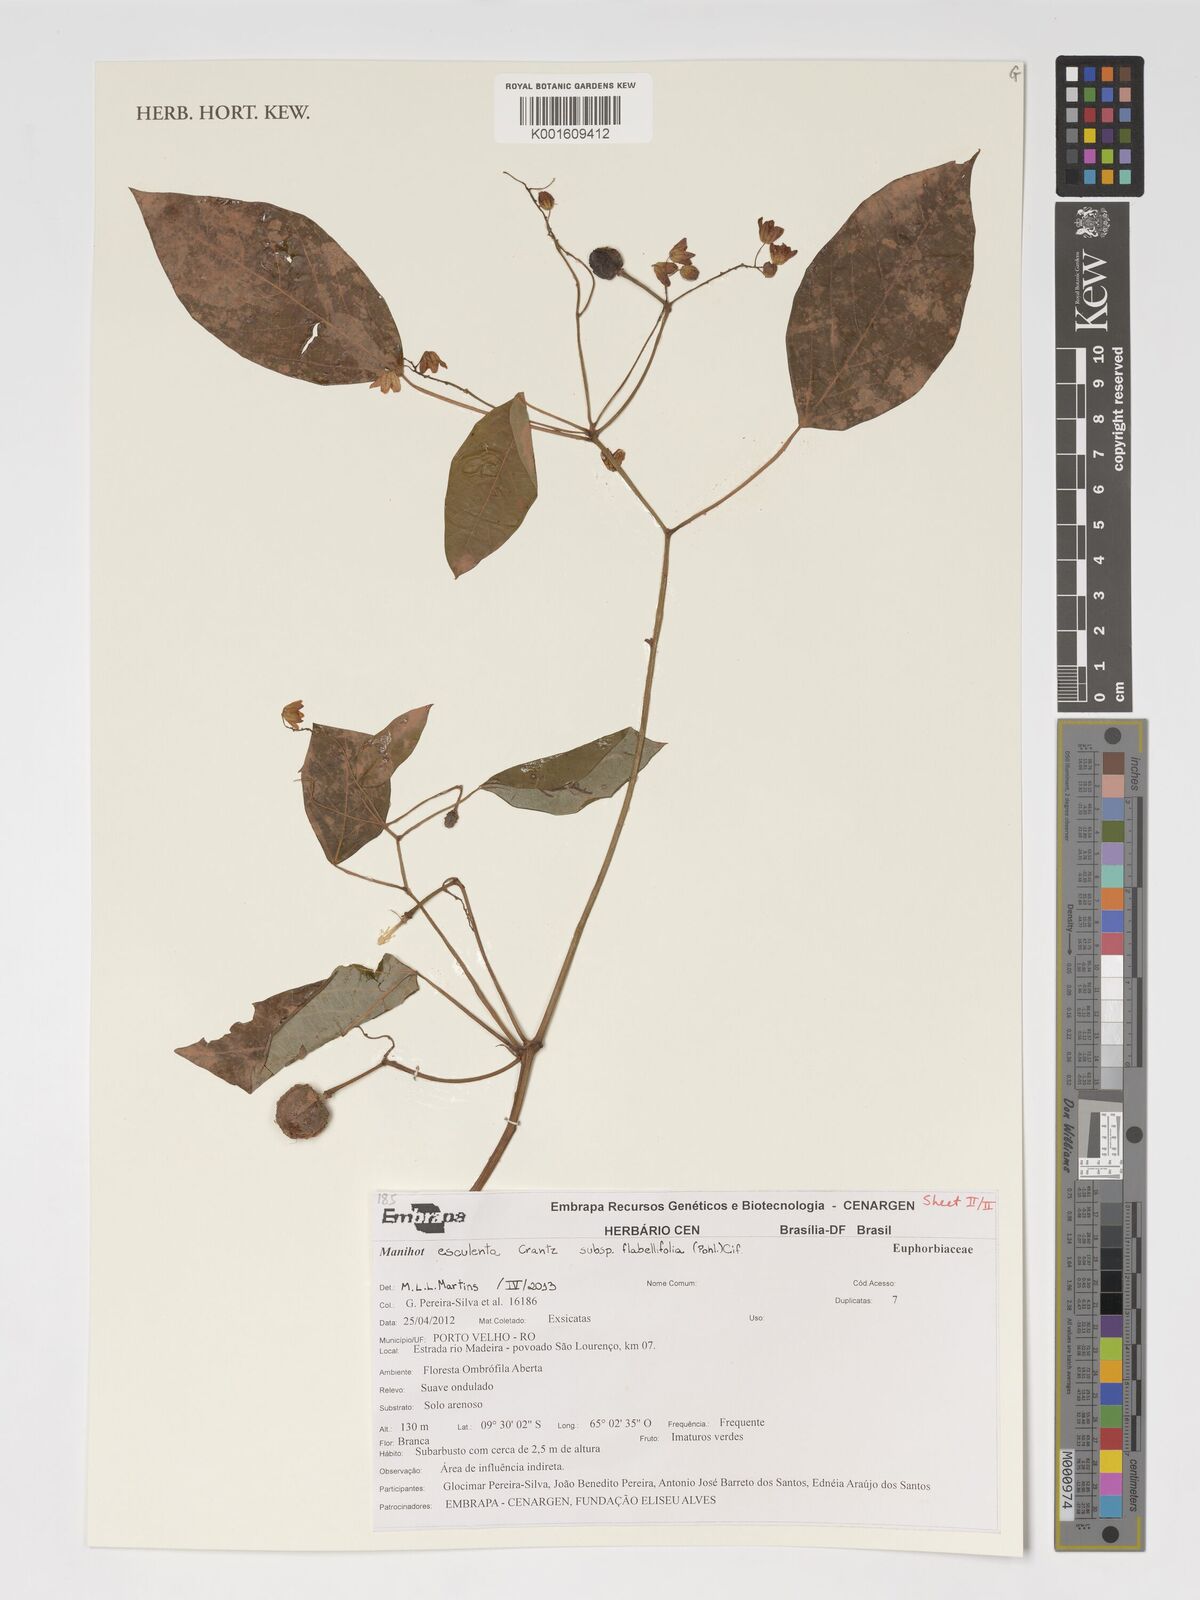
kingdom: Plantae
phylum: Tracheophyta
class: Magnoliopsida
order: Malpighiales
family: Euphorbiaceae
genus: Manihot
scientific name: Manihot esculenta
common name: Cassava
